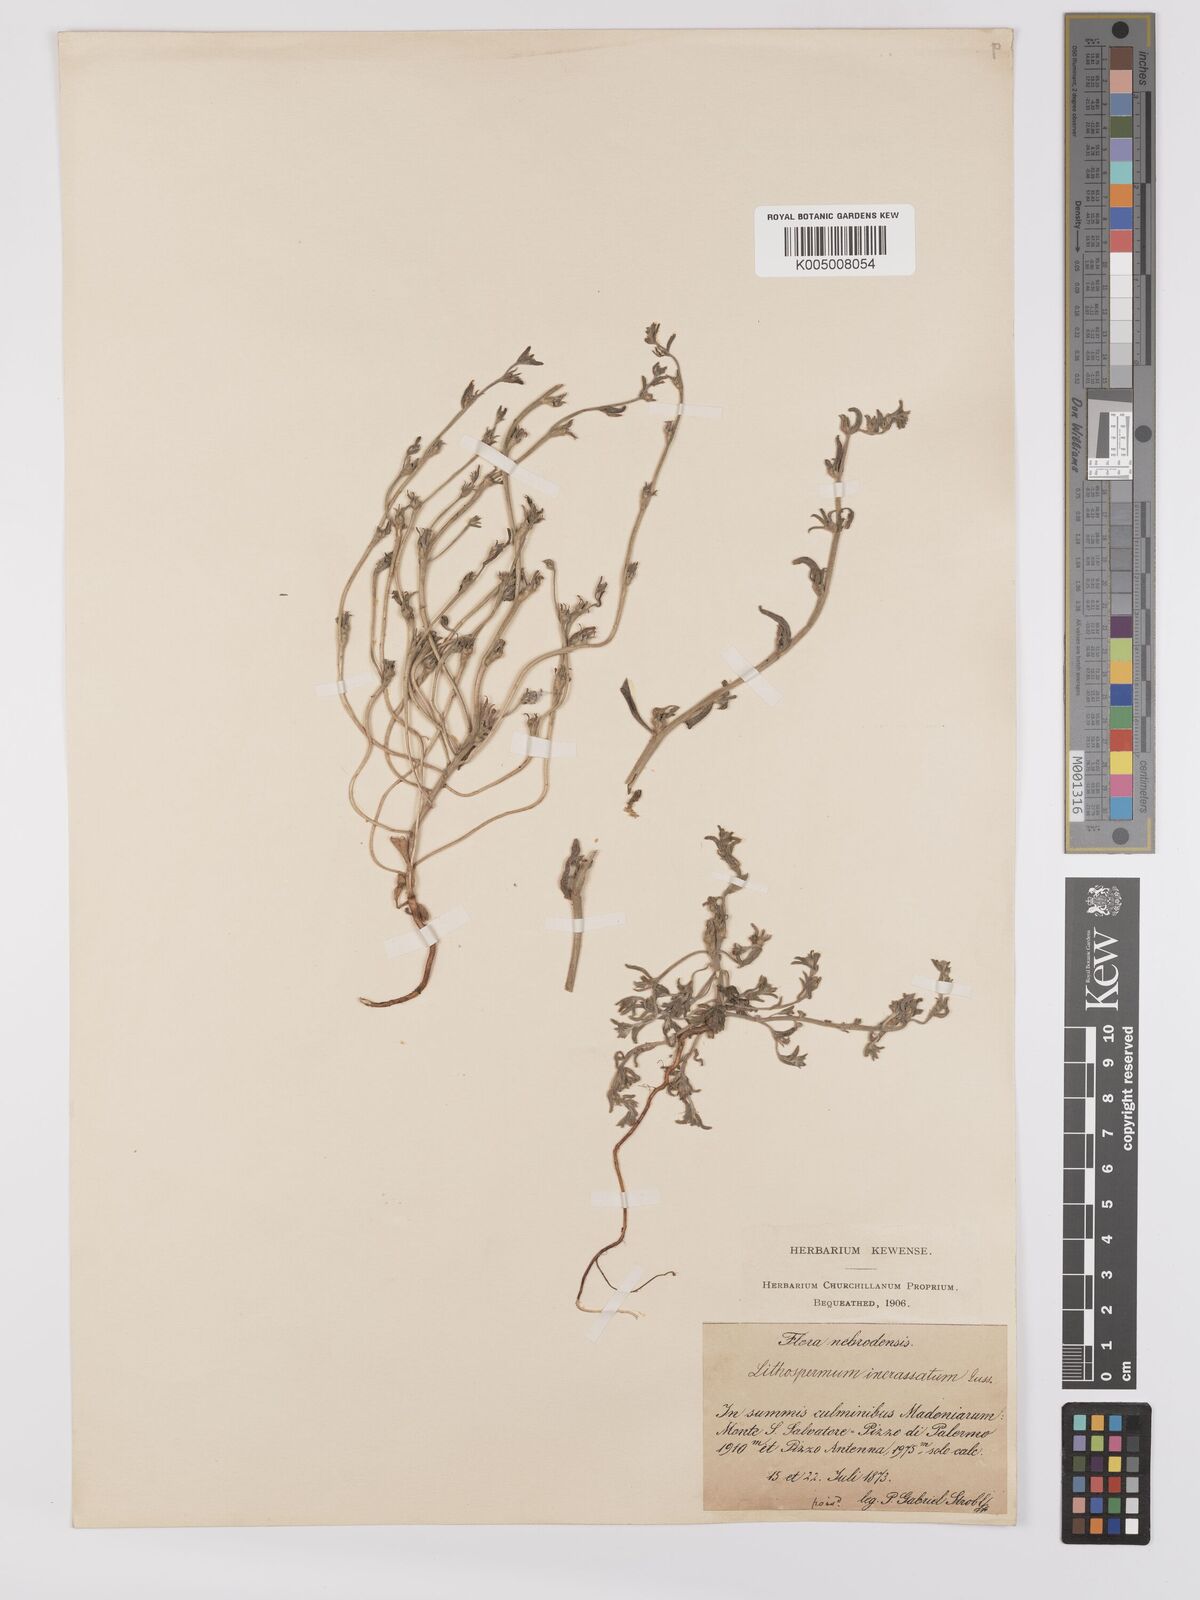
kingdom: Plantae
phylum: Tracheophyta
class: Magnoliopsida
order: Boraginales
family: Boraginaceae
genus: Buglossoides
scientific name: Buglossoides incrassata
